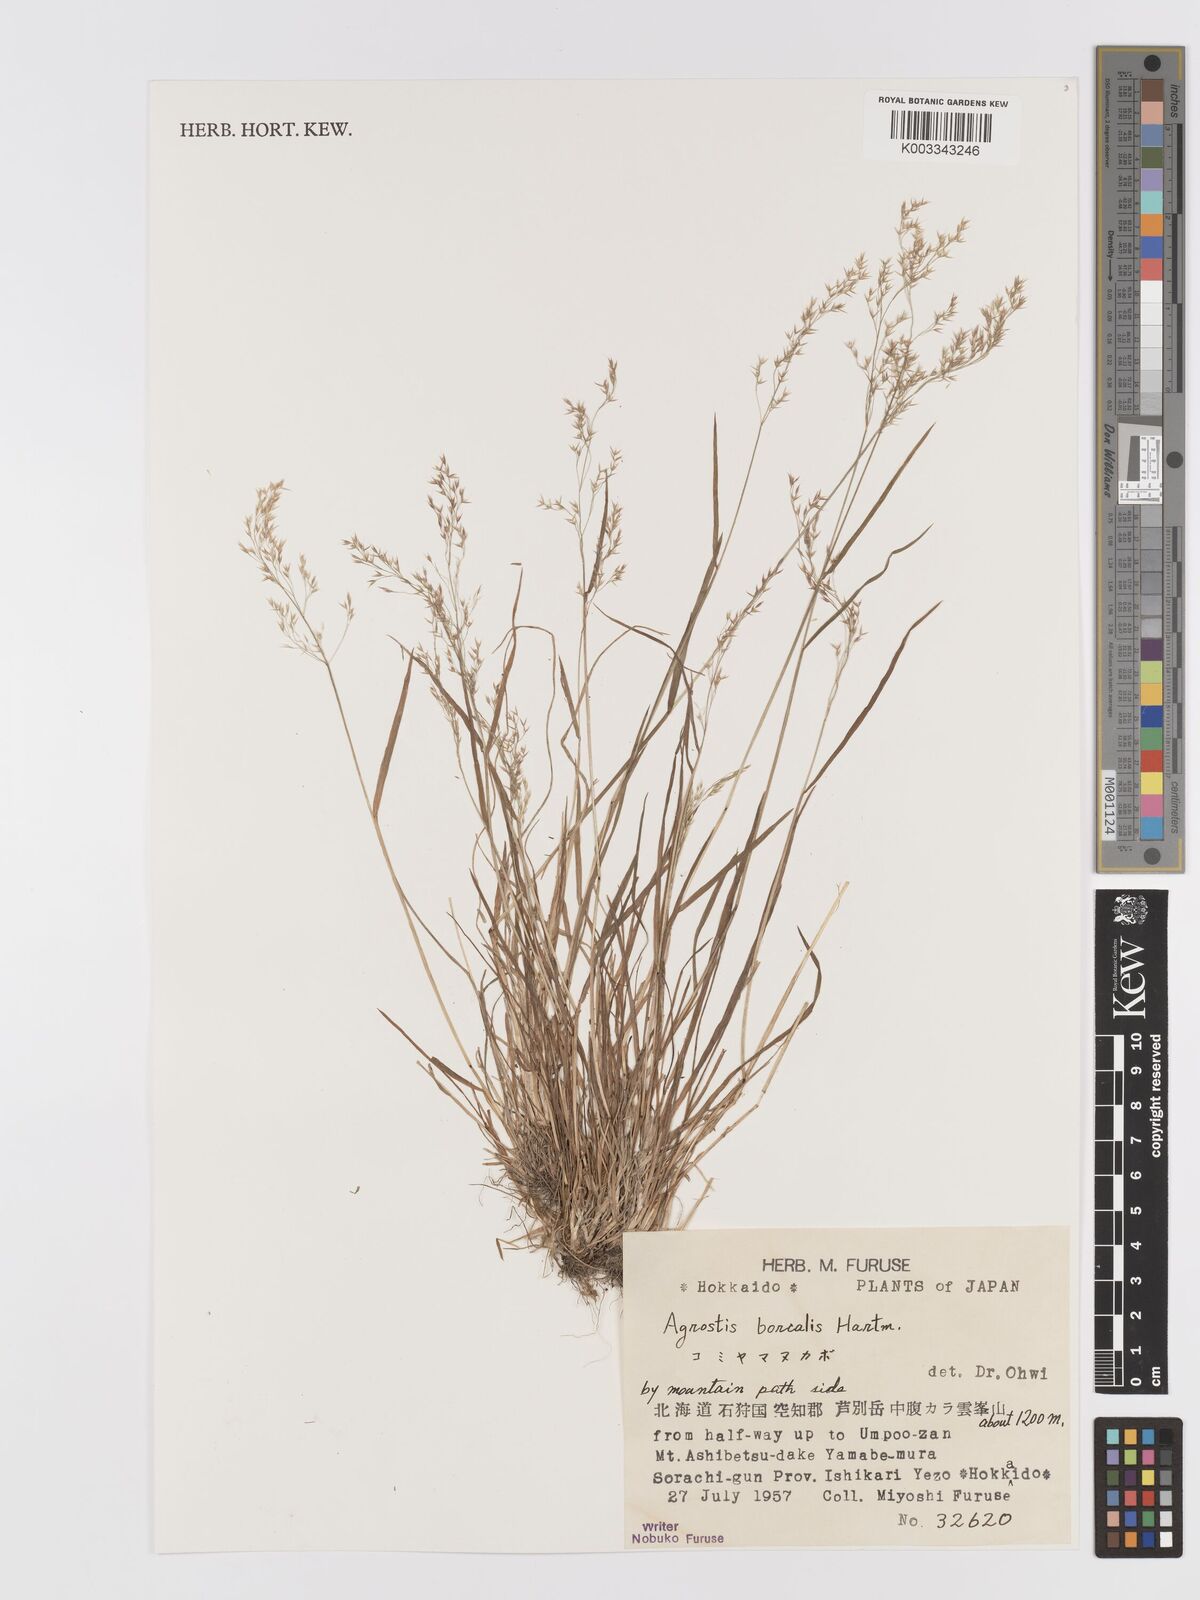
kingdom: Plantae
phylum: Tracheophyta
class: Liliopsida
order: Poales
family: Poaceae
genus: Agrostis
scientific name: Agrostis mertensii
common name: Northern bent
